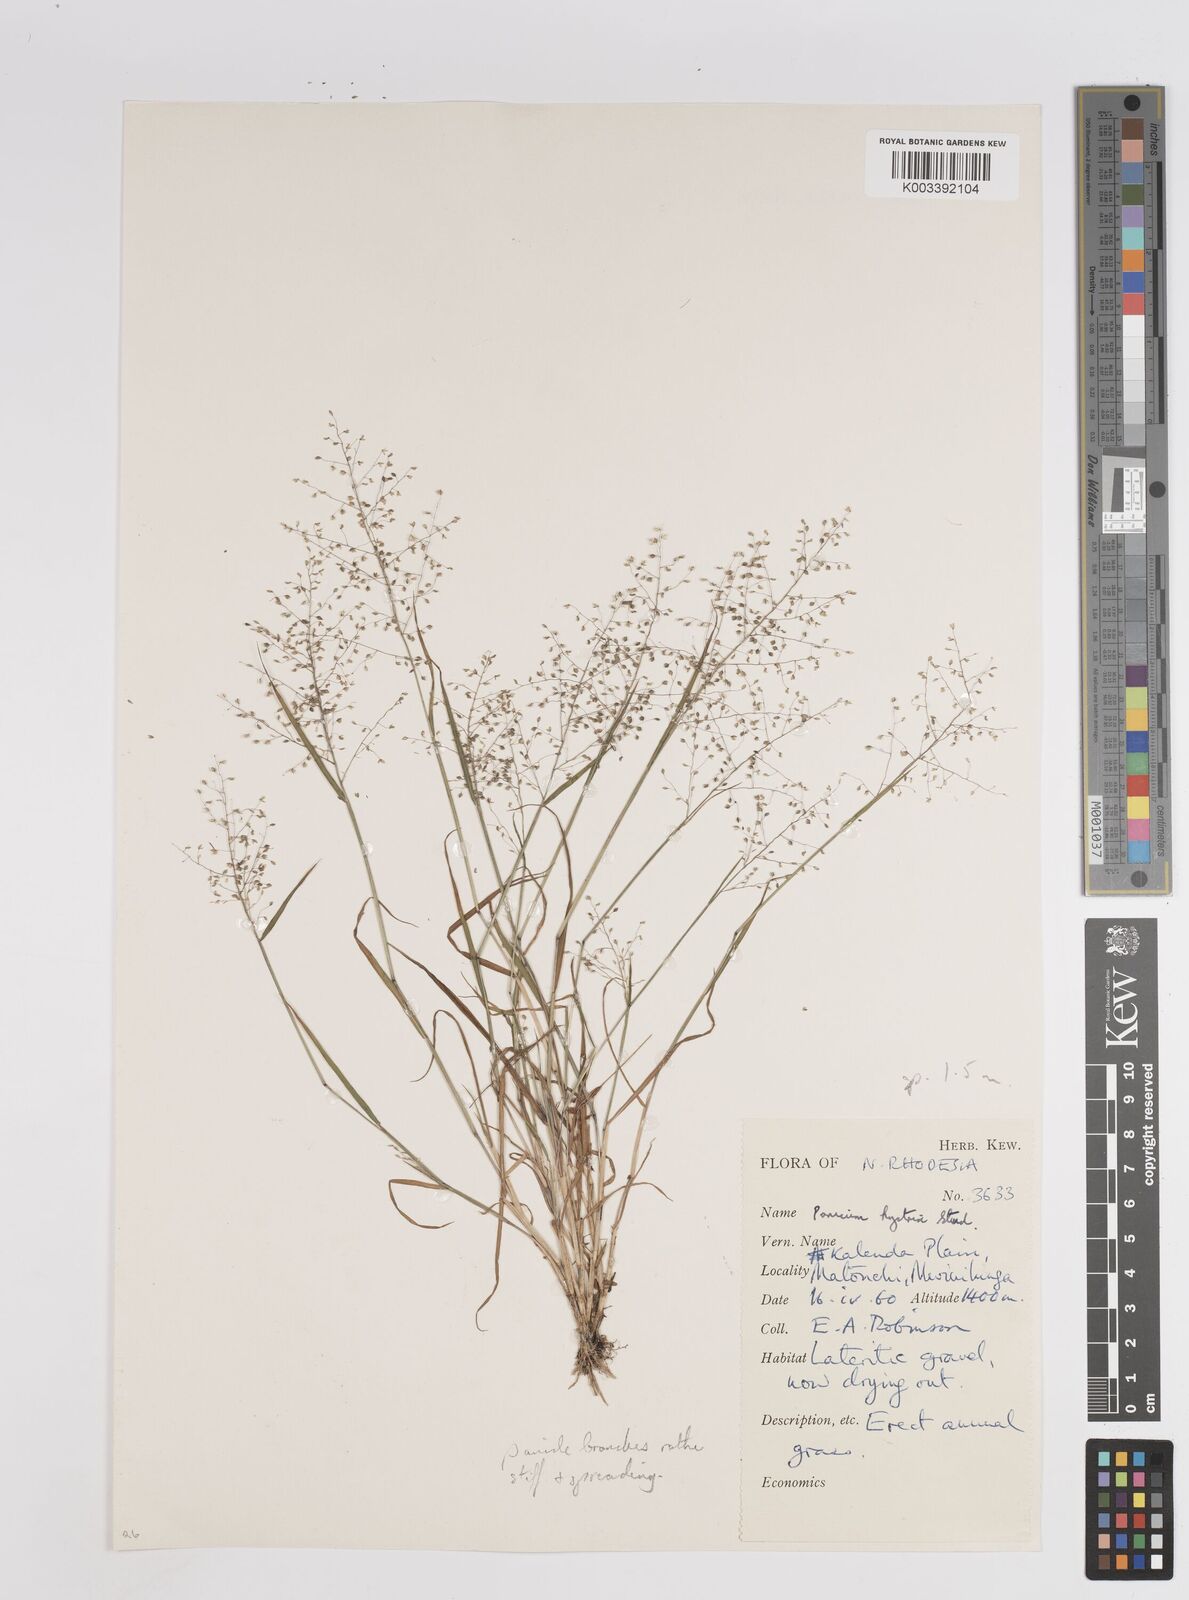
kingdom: Plantae
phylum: Tracheophyta
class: Liliopsida
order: Poales
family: Poaceae
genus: Trichanthecium
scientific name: Trichanthecium tenellum
